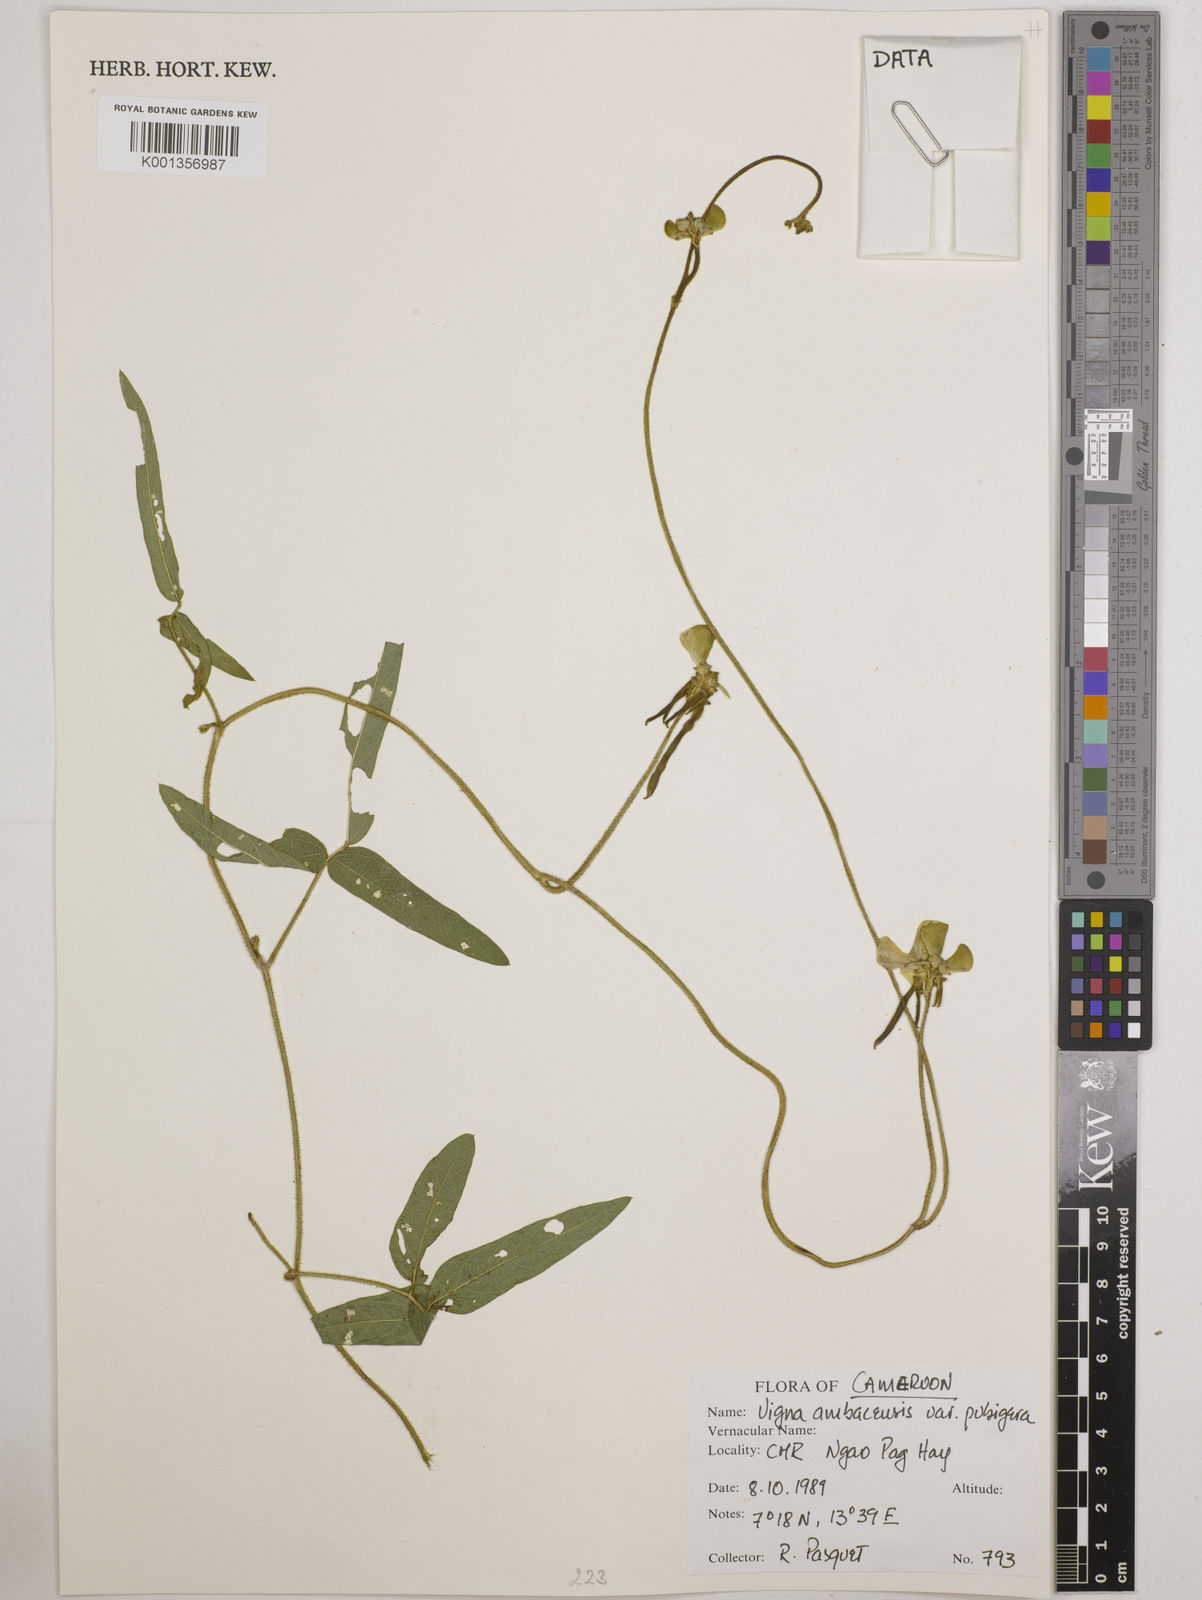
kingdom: Plantae
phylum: Tracheophyta
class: Magnoliopsida
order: Fabales
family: Fabaceae
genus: Vigna
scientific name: Vigna pubigera
